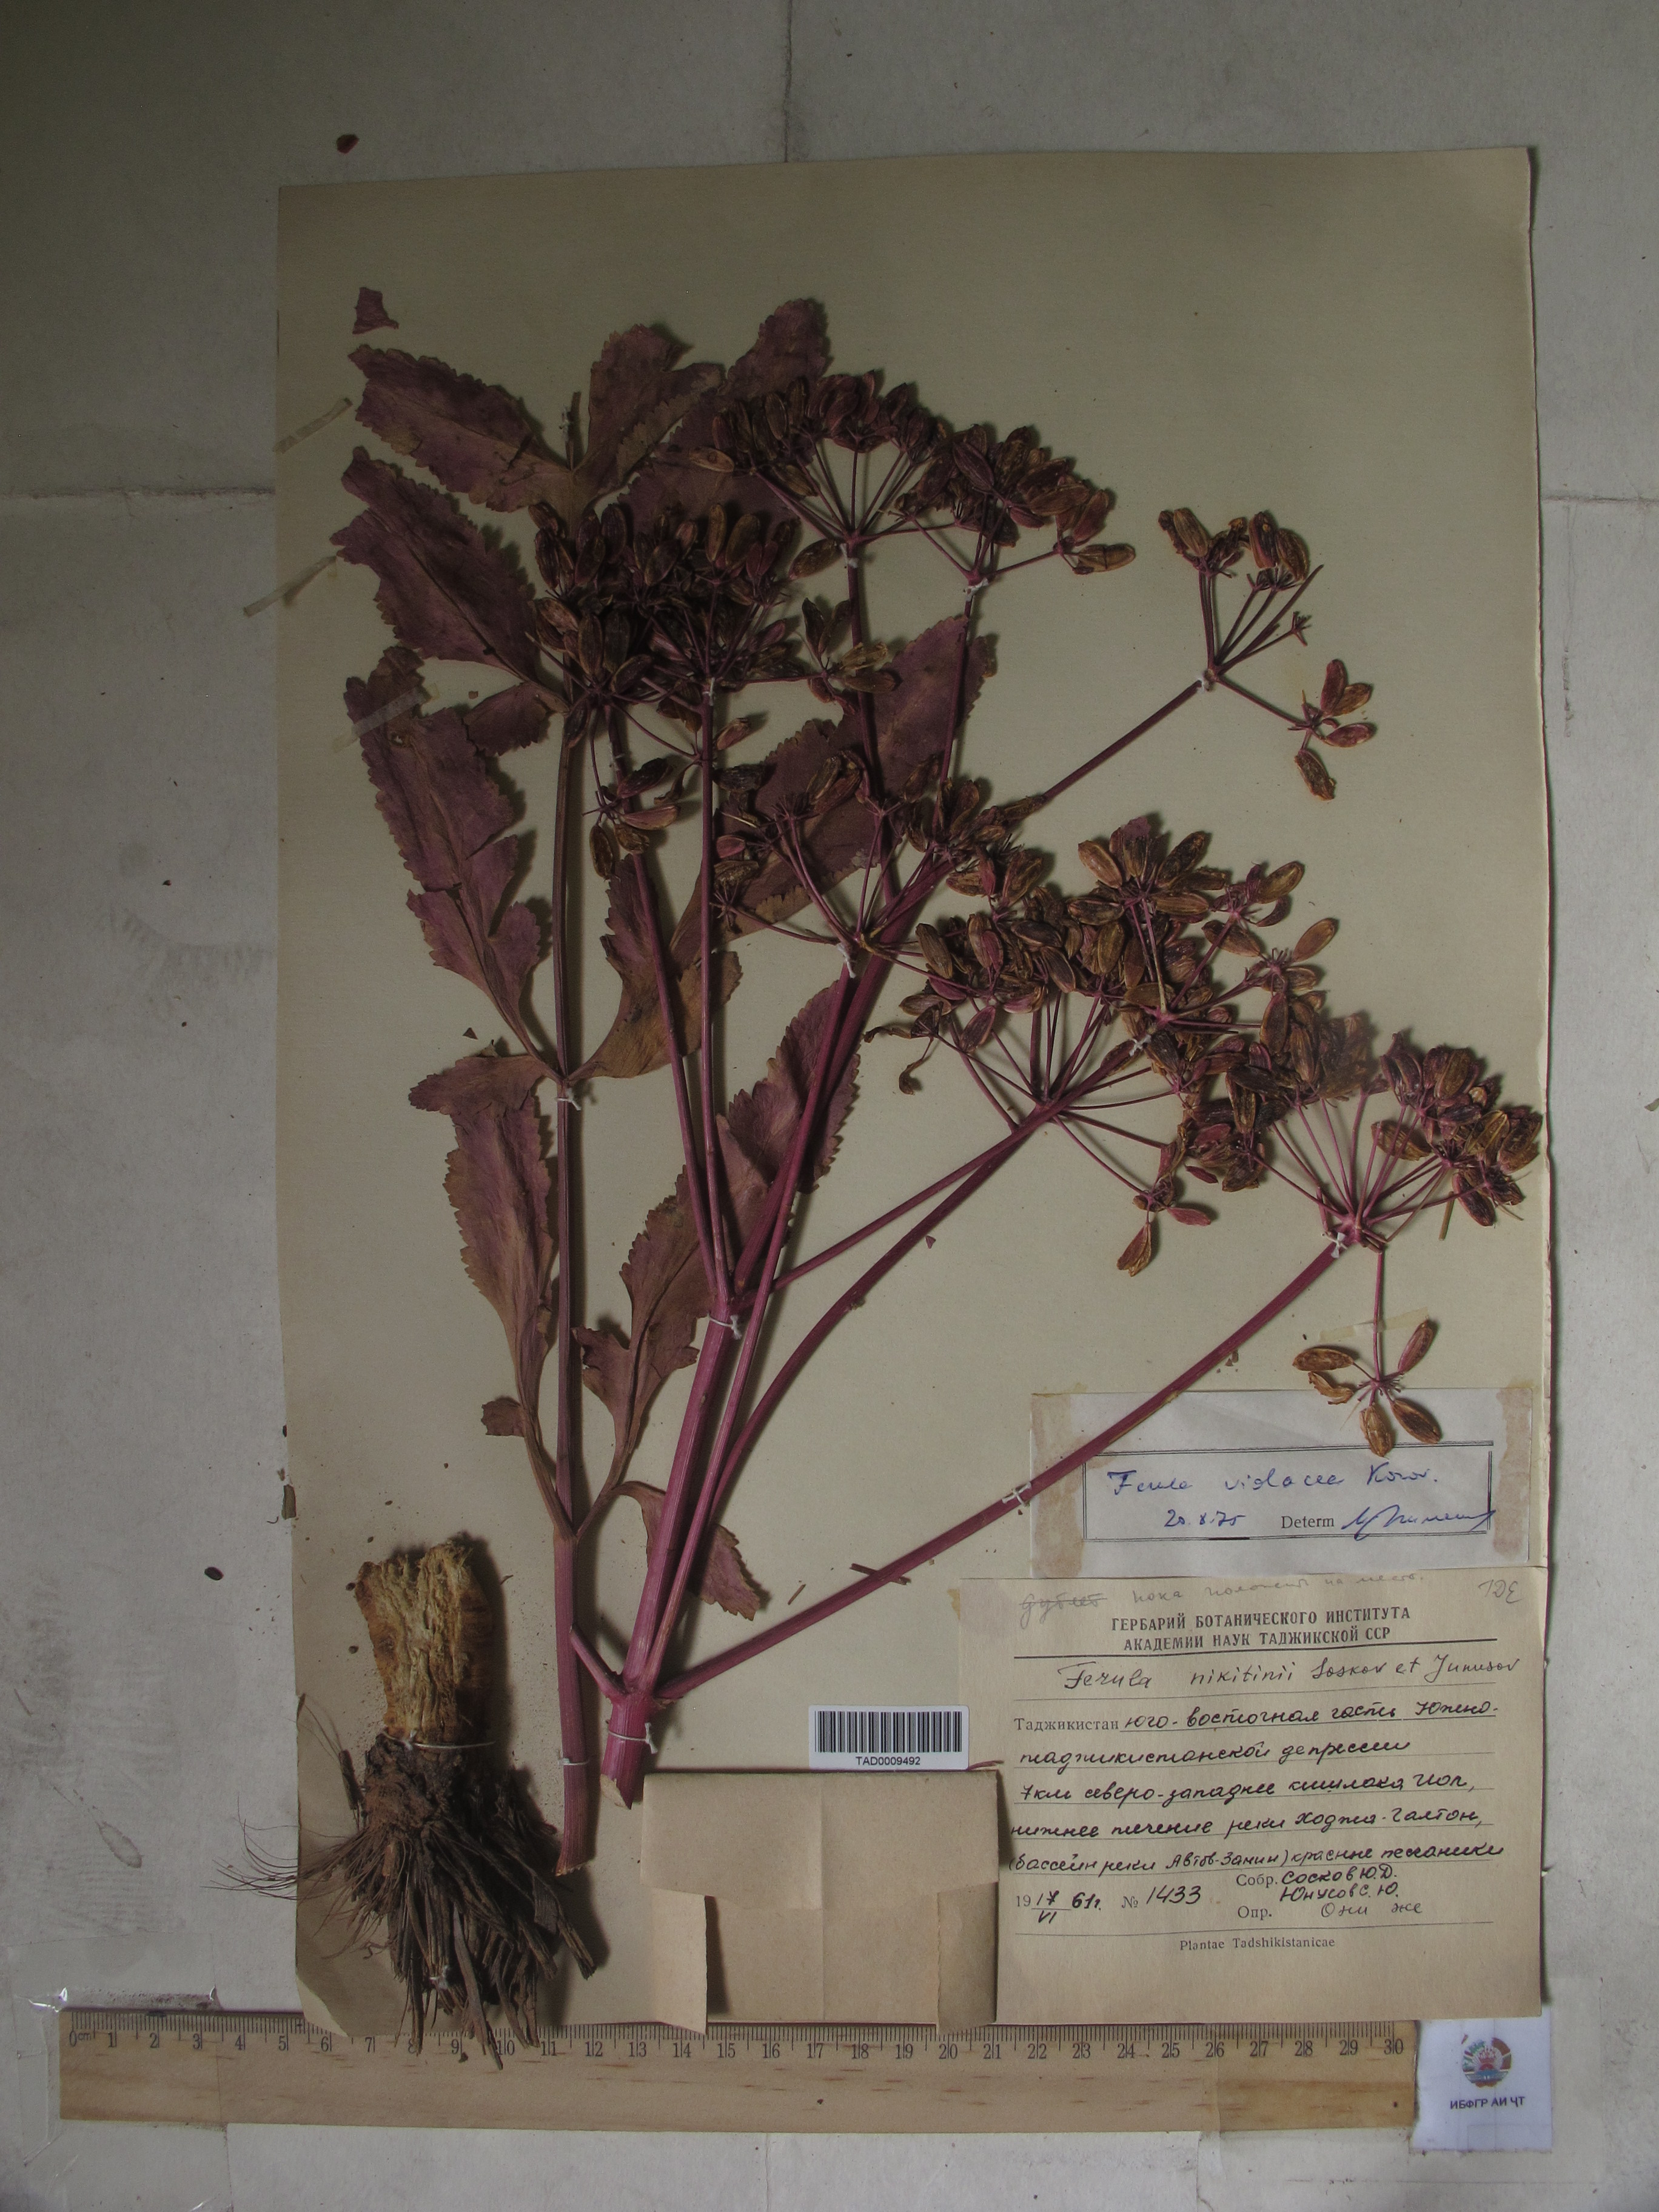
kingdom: Plantae
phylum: Tracheophyta
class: Magnoliopsida
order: Apiales
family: Apiaceae
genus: Ferula
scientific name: Ferula violacea
